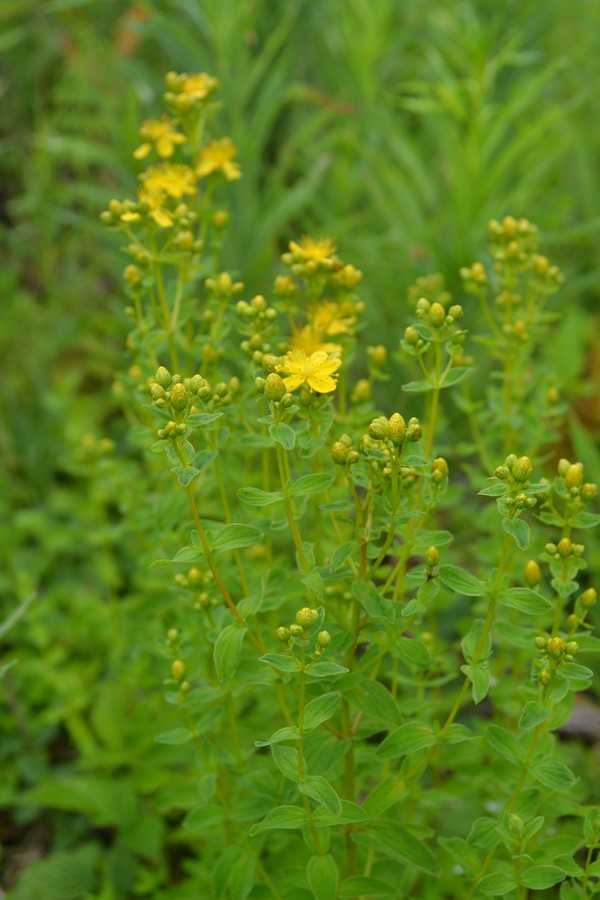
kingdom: Plantae
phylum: Tracheophyta
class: Magnoliopsida
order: Malpighiales
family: Hypericaceae
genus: Hypericum
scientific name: Hypericum perforatum
